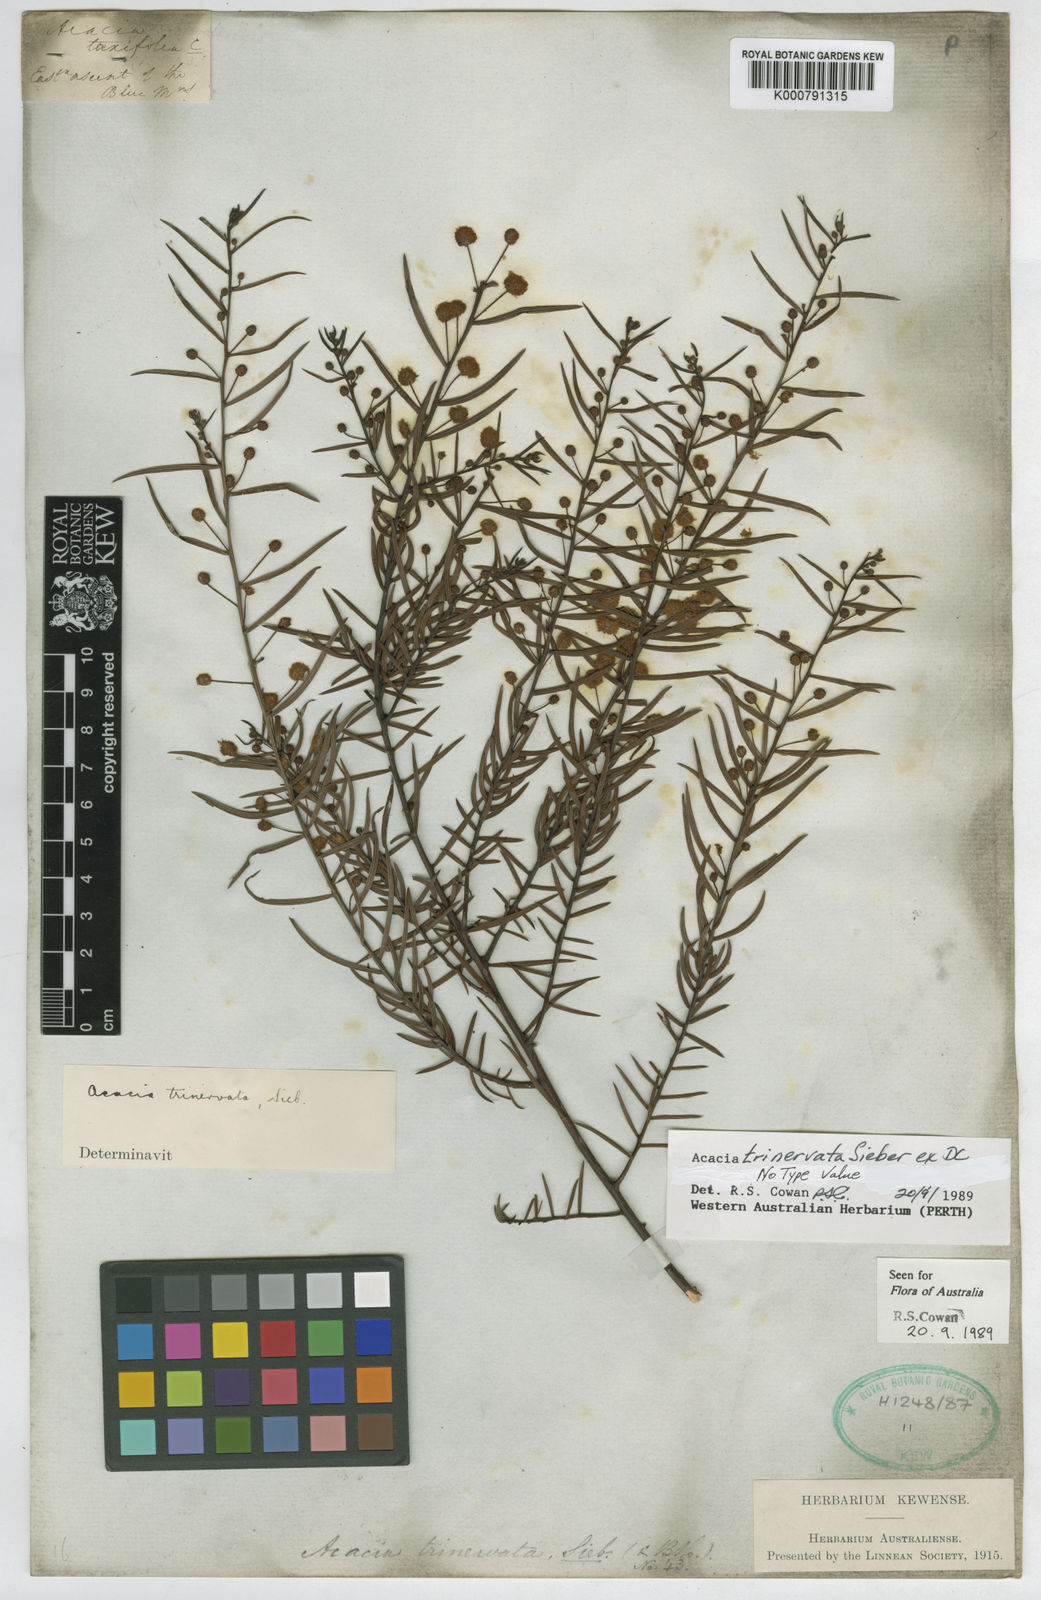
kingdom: Plantae
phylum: Tracheophyta
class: Magnoliopsida
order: Fabales
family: Fabaceae
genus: Acacia
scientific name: Acacia trinervata
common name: Three-nerve wattle
